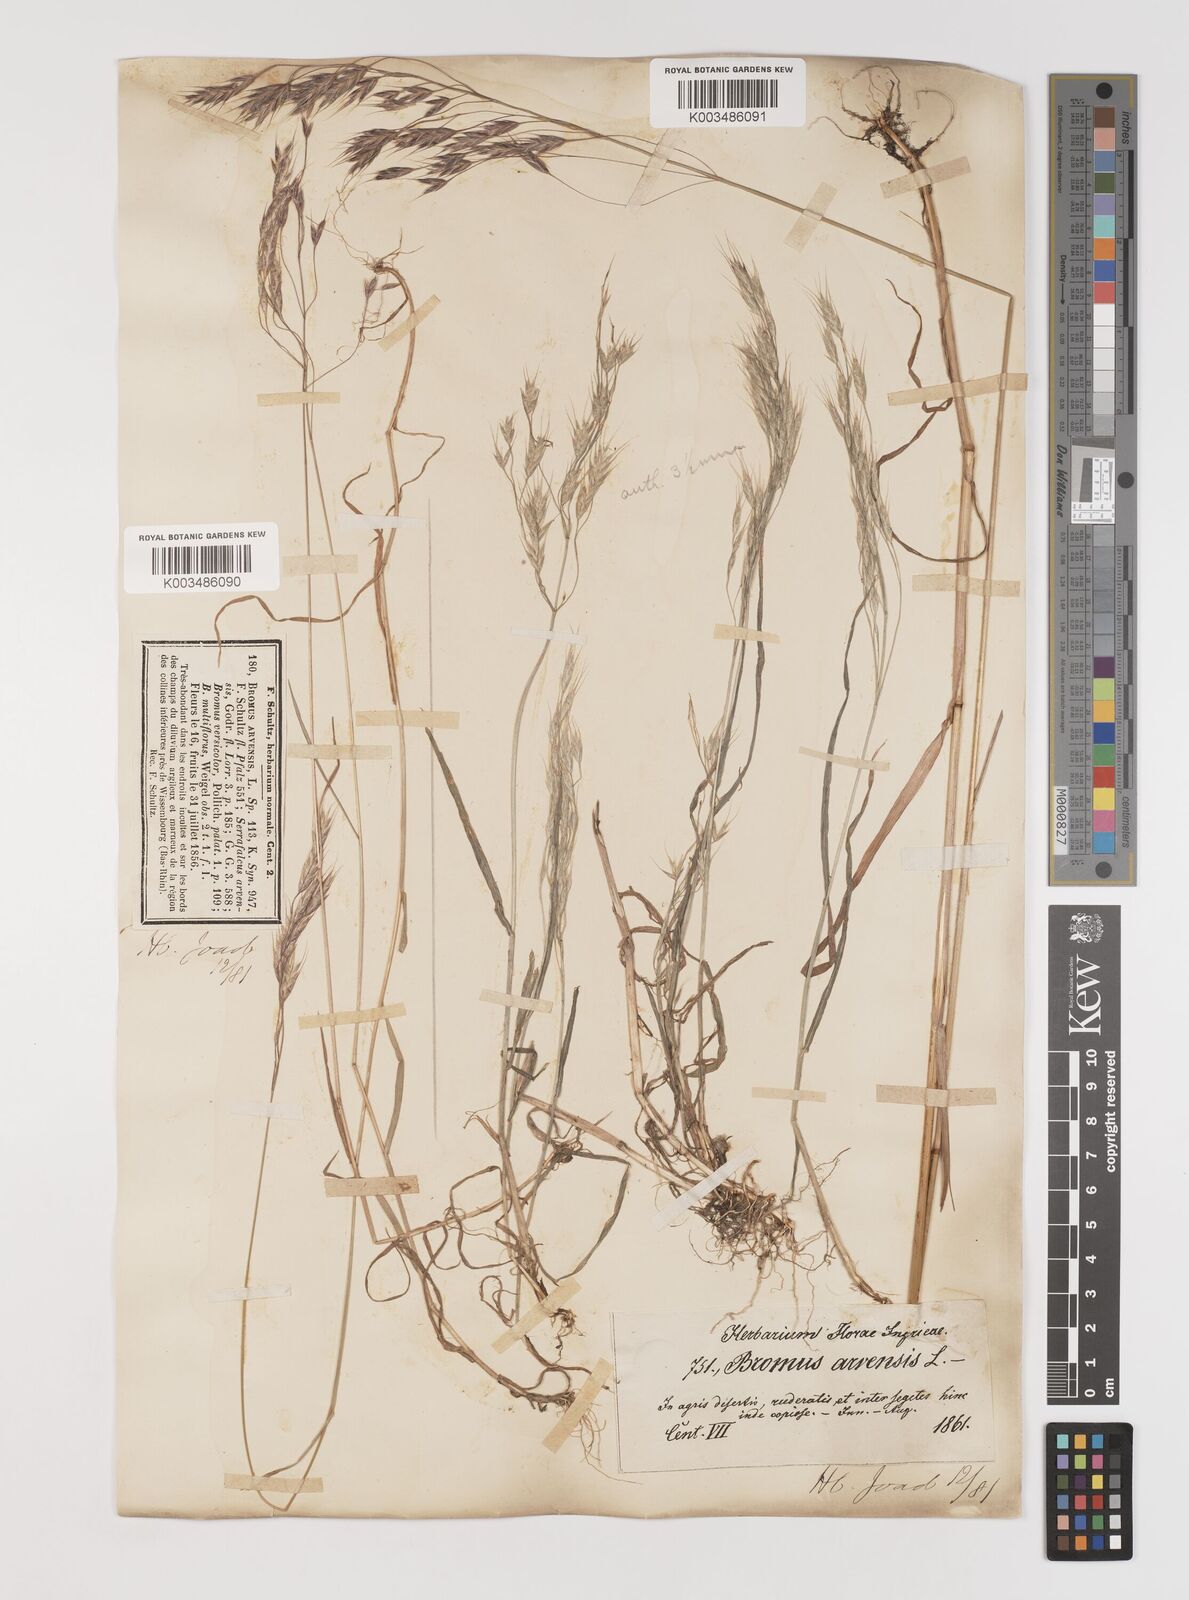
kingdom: Plantae
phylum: Tracheophyta
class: Liliopsida
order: Poales
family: Poaceae
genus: Bromus
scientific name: Bromus arvensis
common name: Field brome
